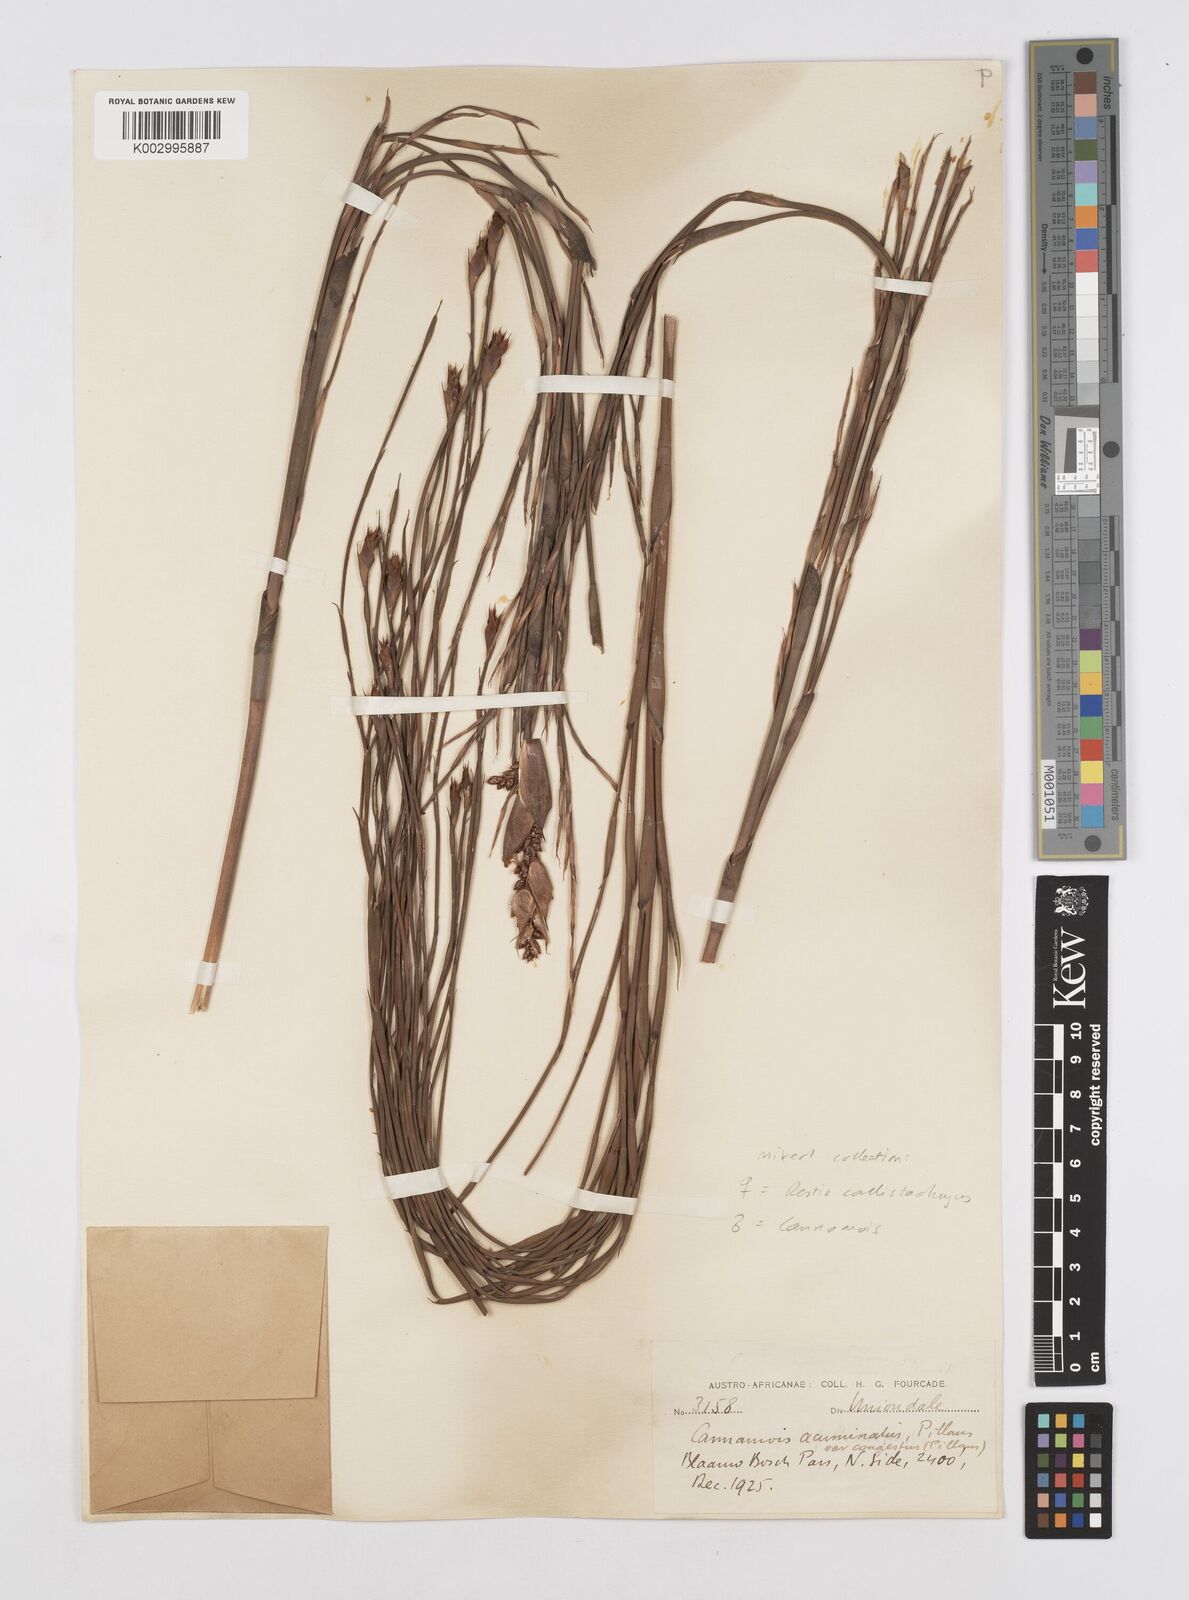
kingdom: Plantae
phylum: Tracheophyta
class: Liliopsida
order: Poales
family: Restionaceae
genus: Cannomois
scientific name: Cannomois congesta
